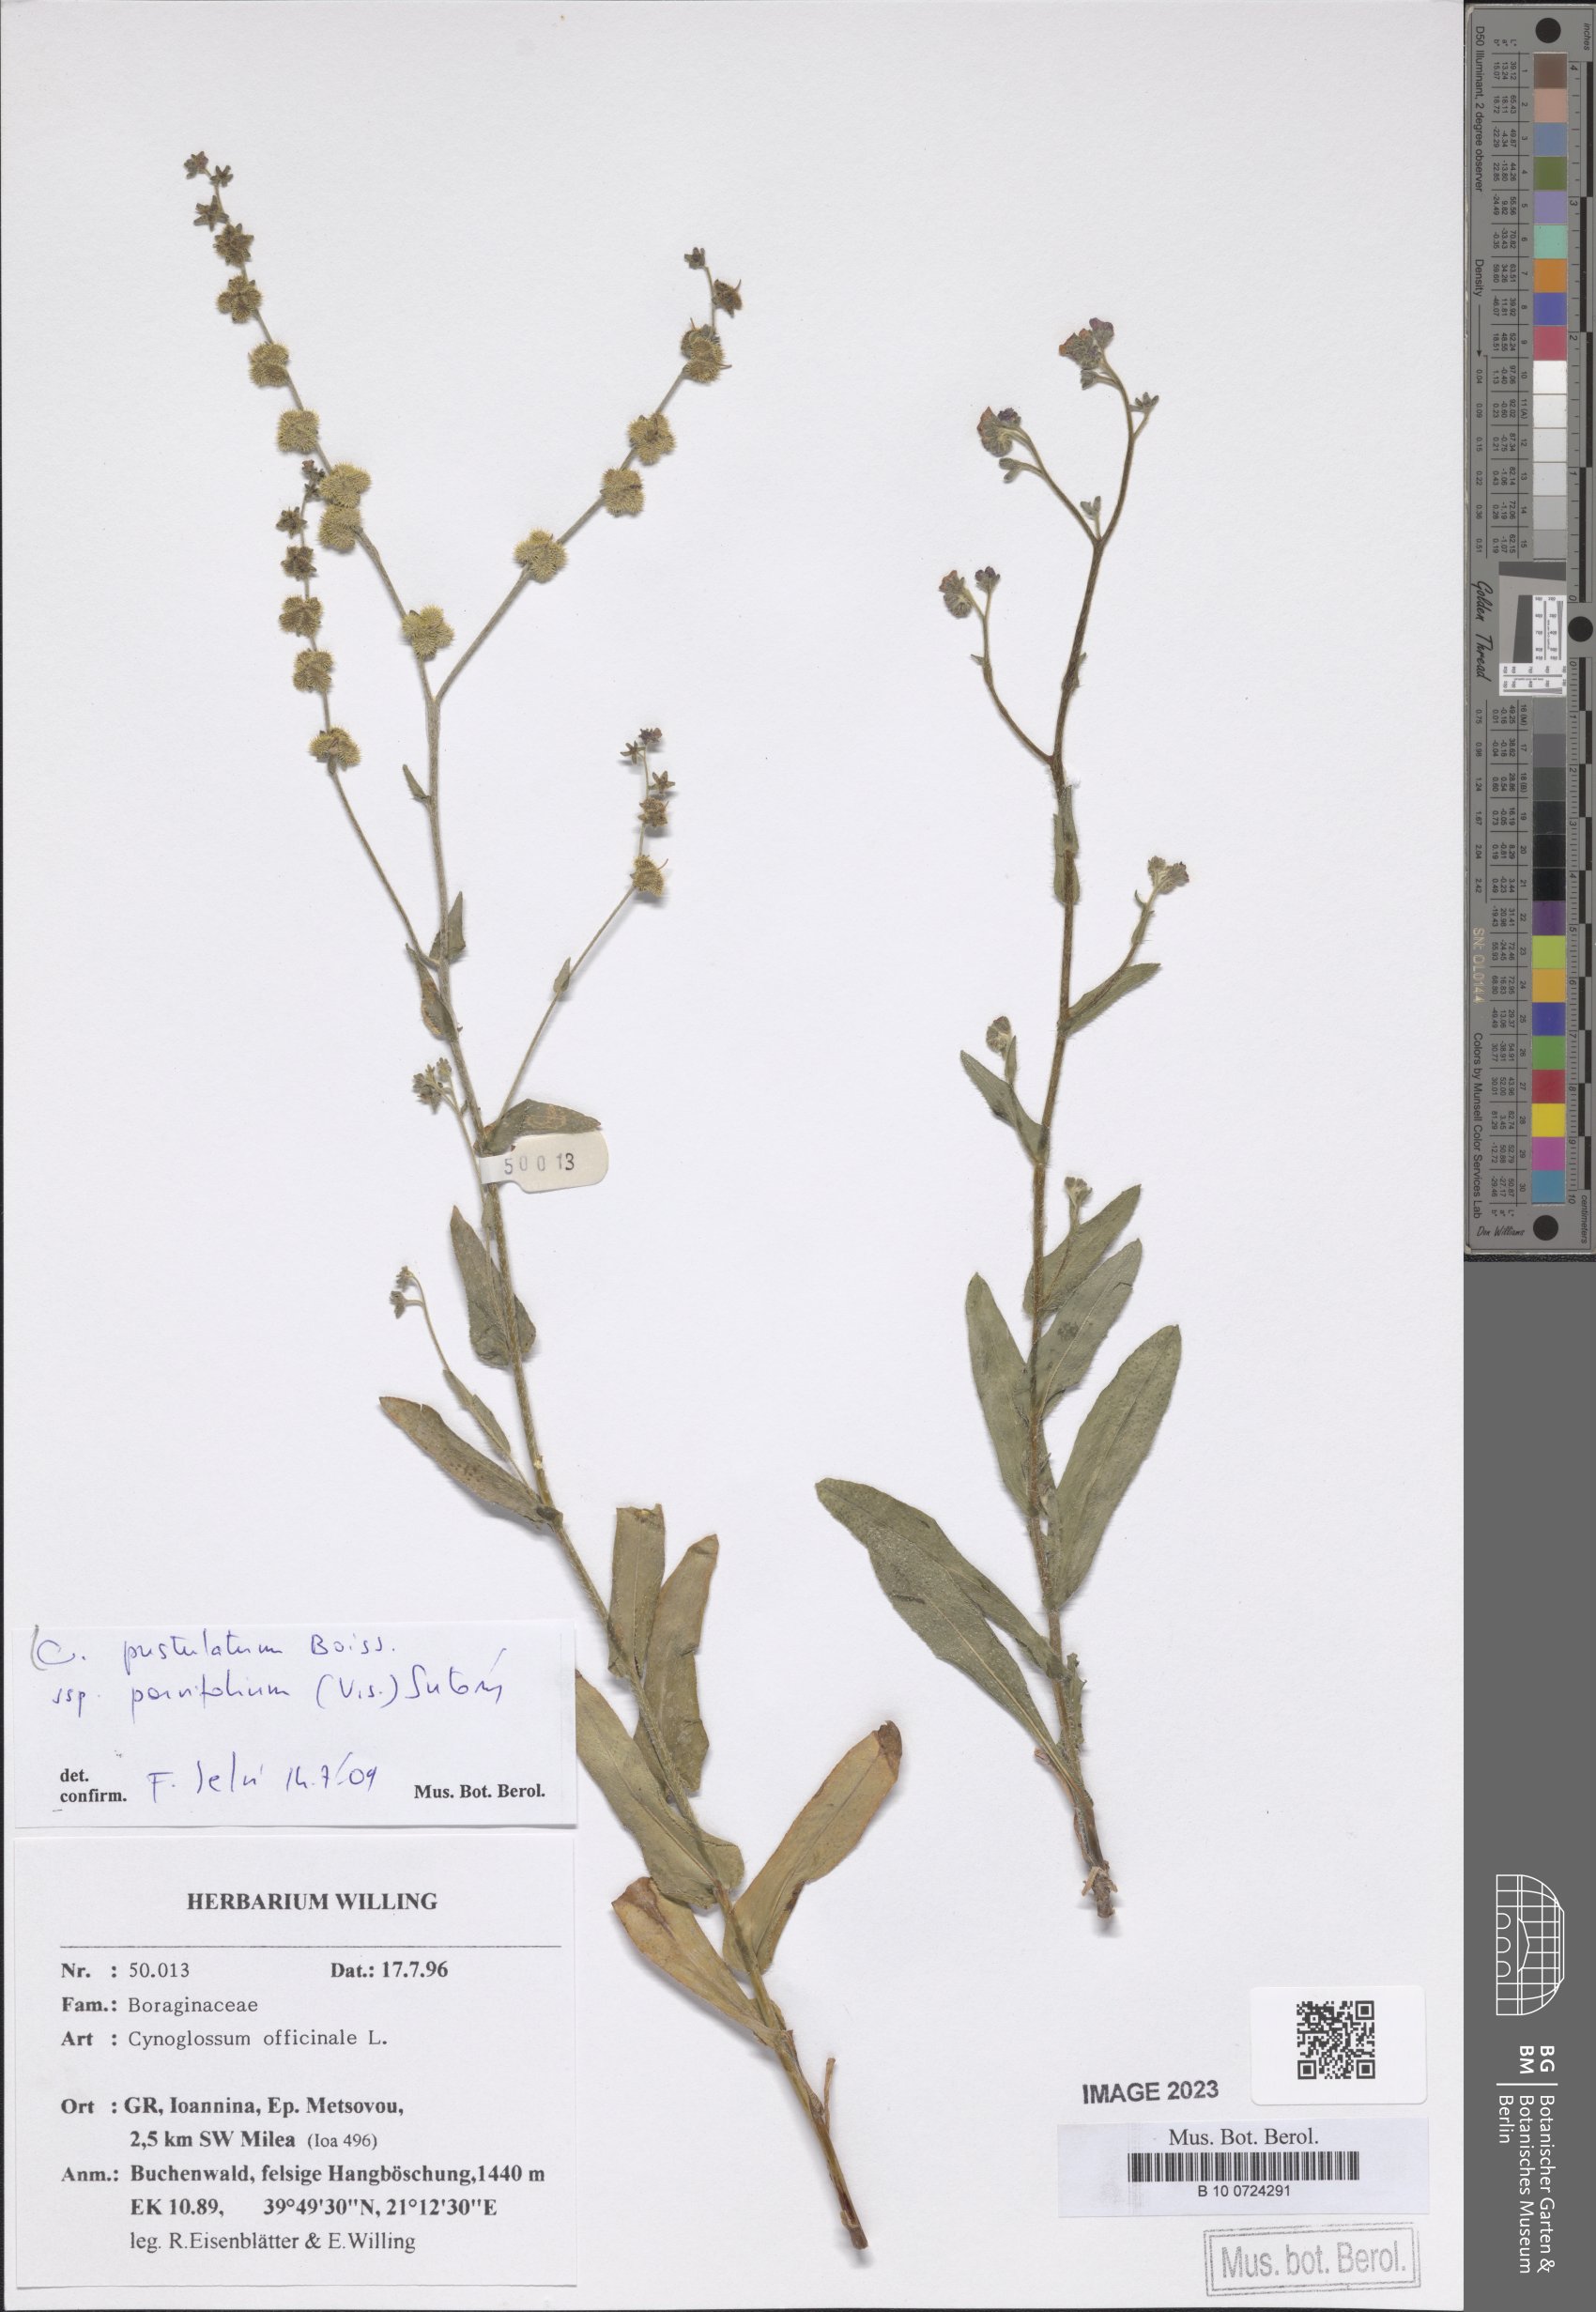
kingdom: Plantae
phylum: Tracheophyta
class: Magnoliopsida
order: Boraginales
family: Boraginaceae
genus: Cynoglossum
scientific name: Cynoglossum pustulatum
